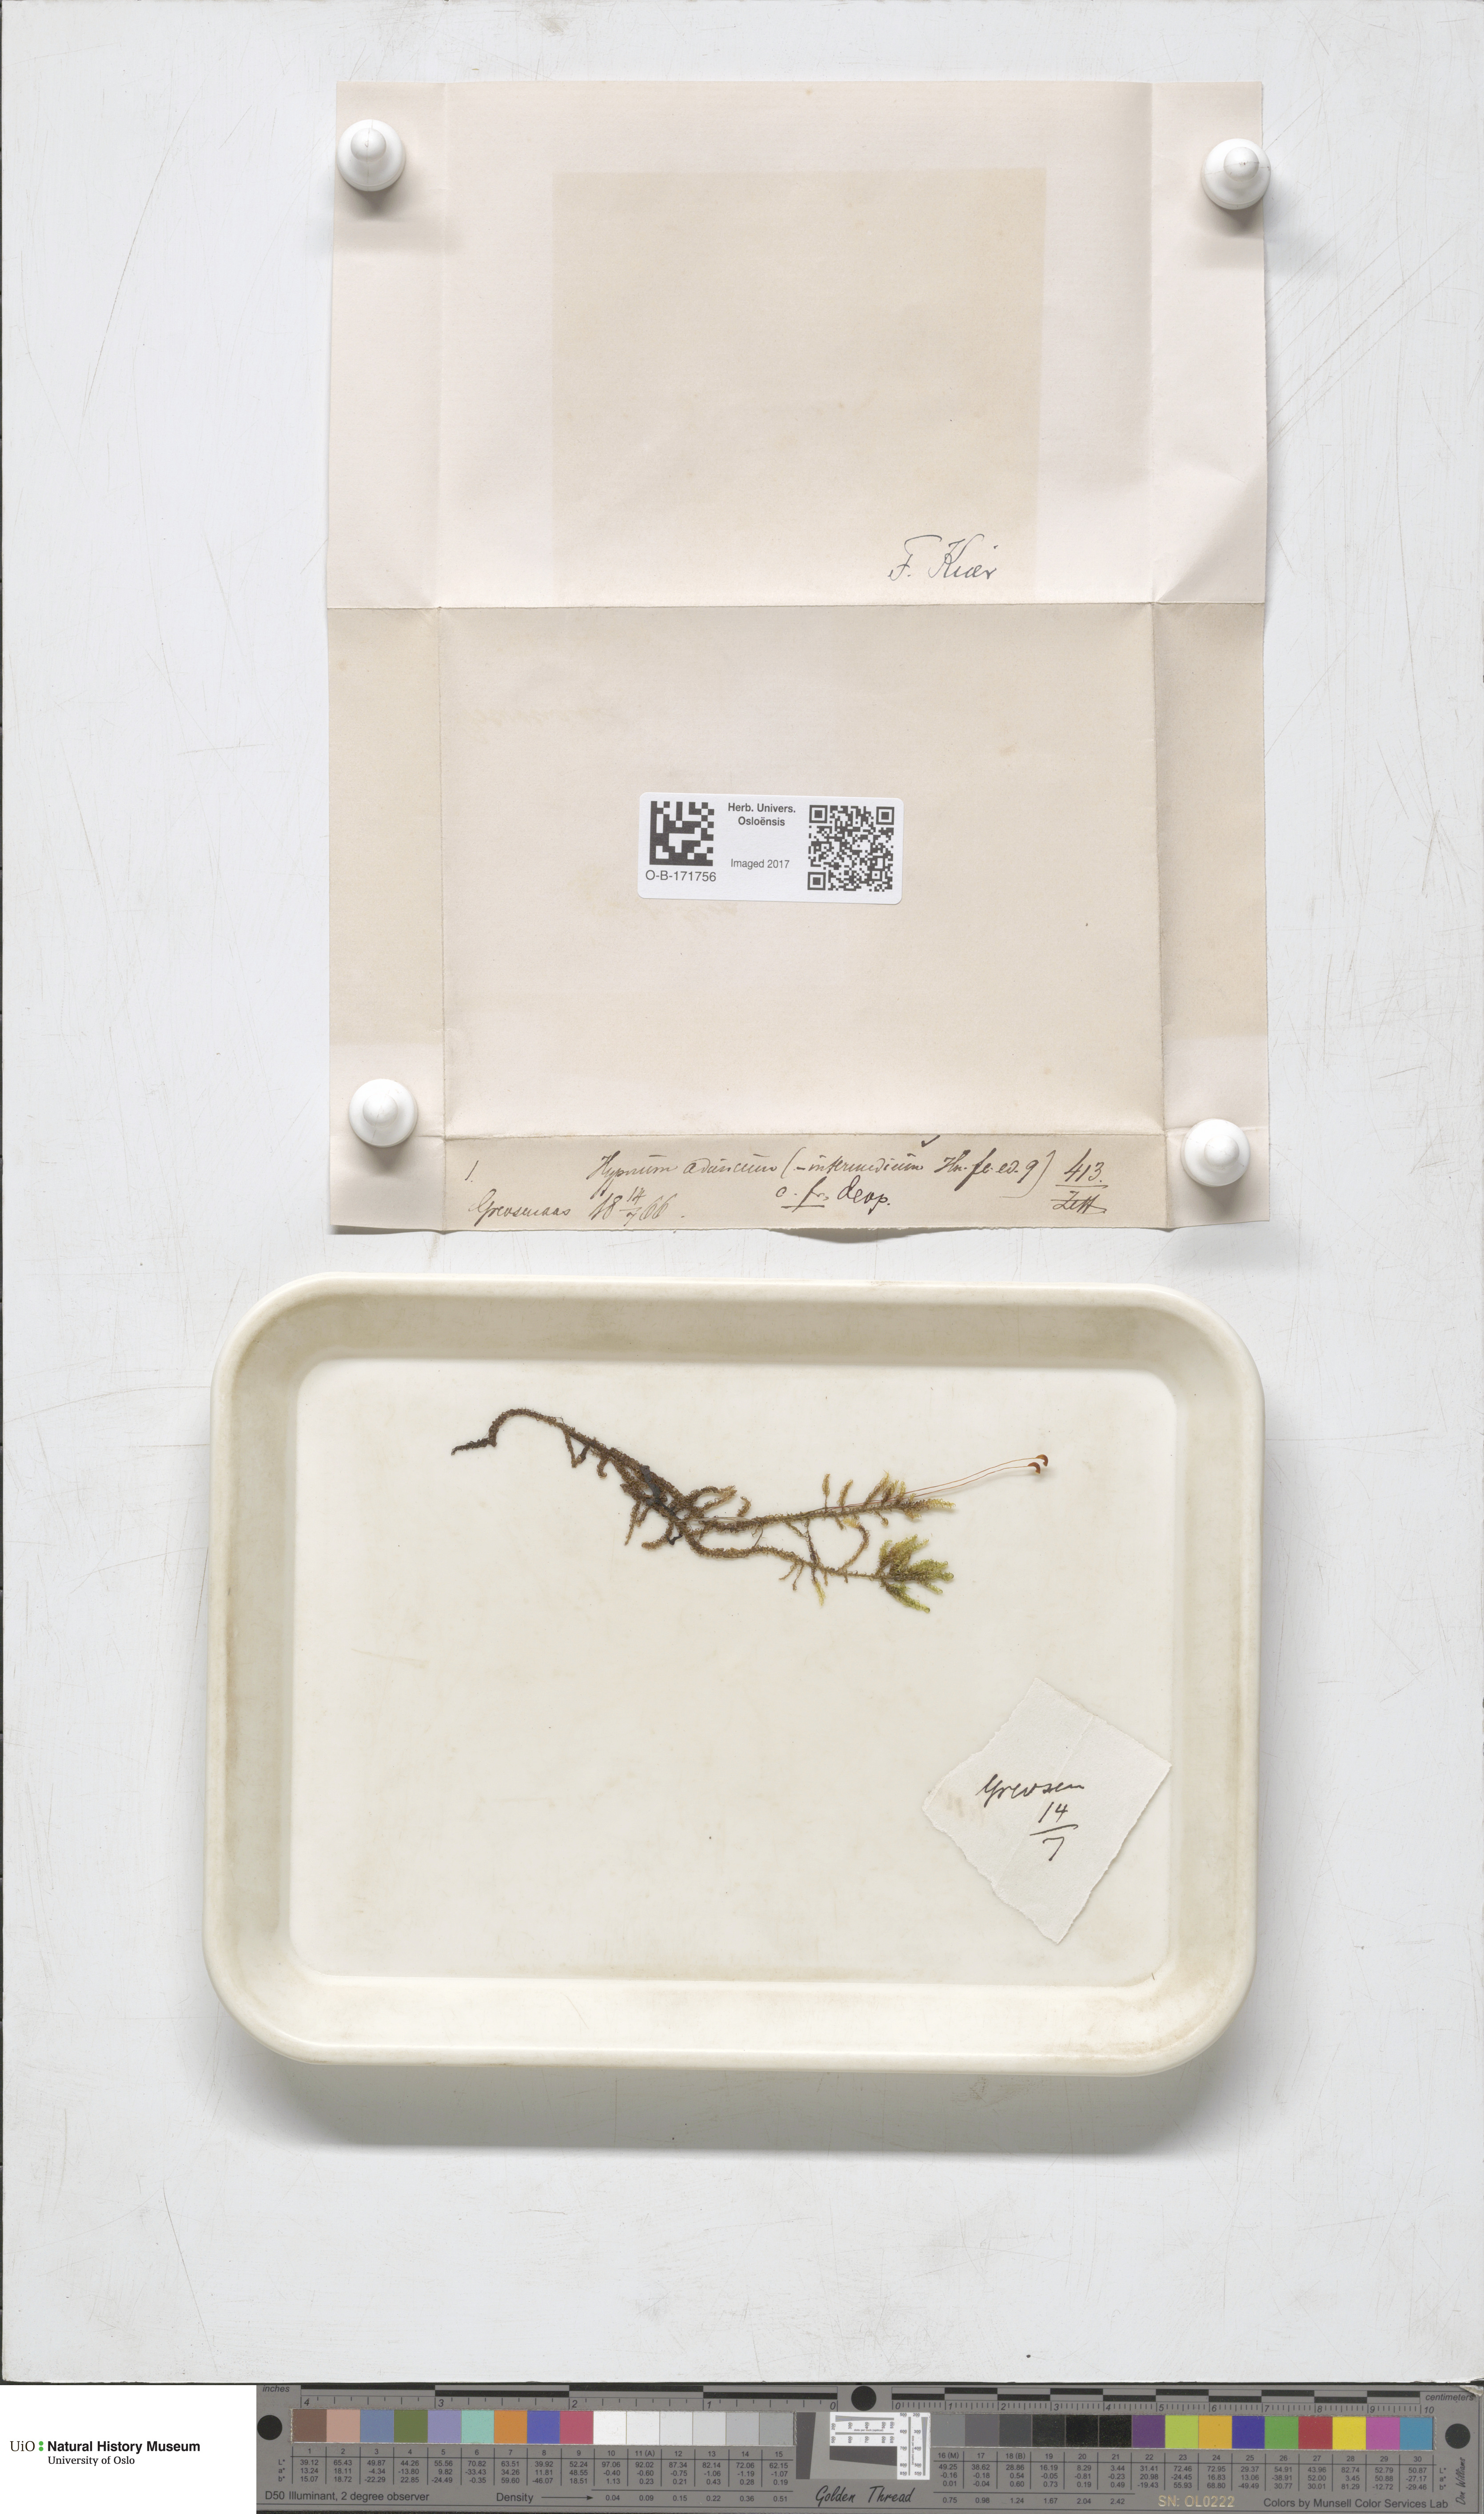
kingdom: Plantae
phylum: Bryophyta
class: Bryopsida
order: Hypnales
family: Amblystegiaceae
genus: Drepanocladus
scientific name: Drepanocladus aduncus
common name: Knieff's hook moss
